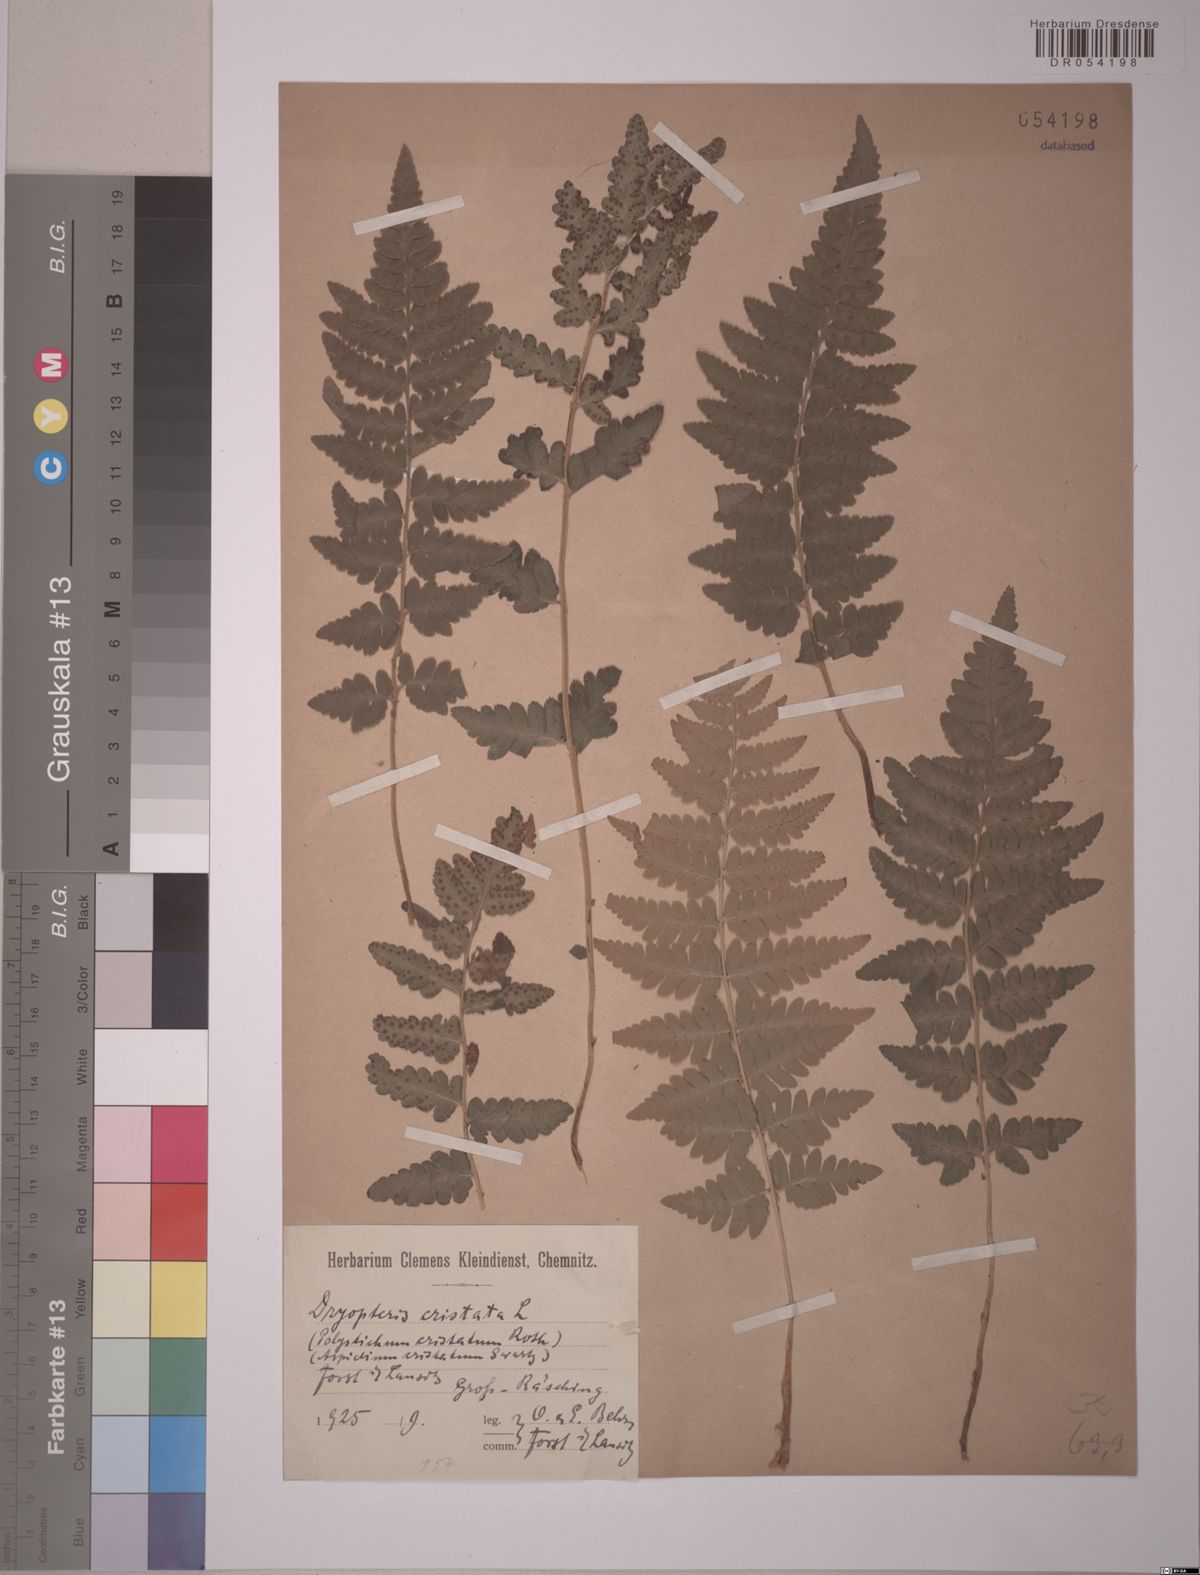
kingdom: Plantae
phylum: Tracheophyta
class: Polypodiopsida
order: Polypodiales
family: Dryopteridaceae
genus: Dryopteris
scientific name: Dryopteris cristata
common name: Crested wood fern
